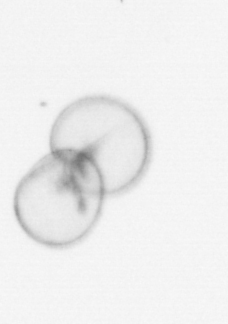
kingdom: Chromista
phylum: Myzozoa
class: Dinophyceae
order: Noctilucales
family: Noctilucaceae
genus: Noctiluca
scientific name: Noctiluca scintillans
